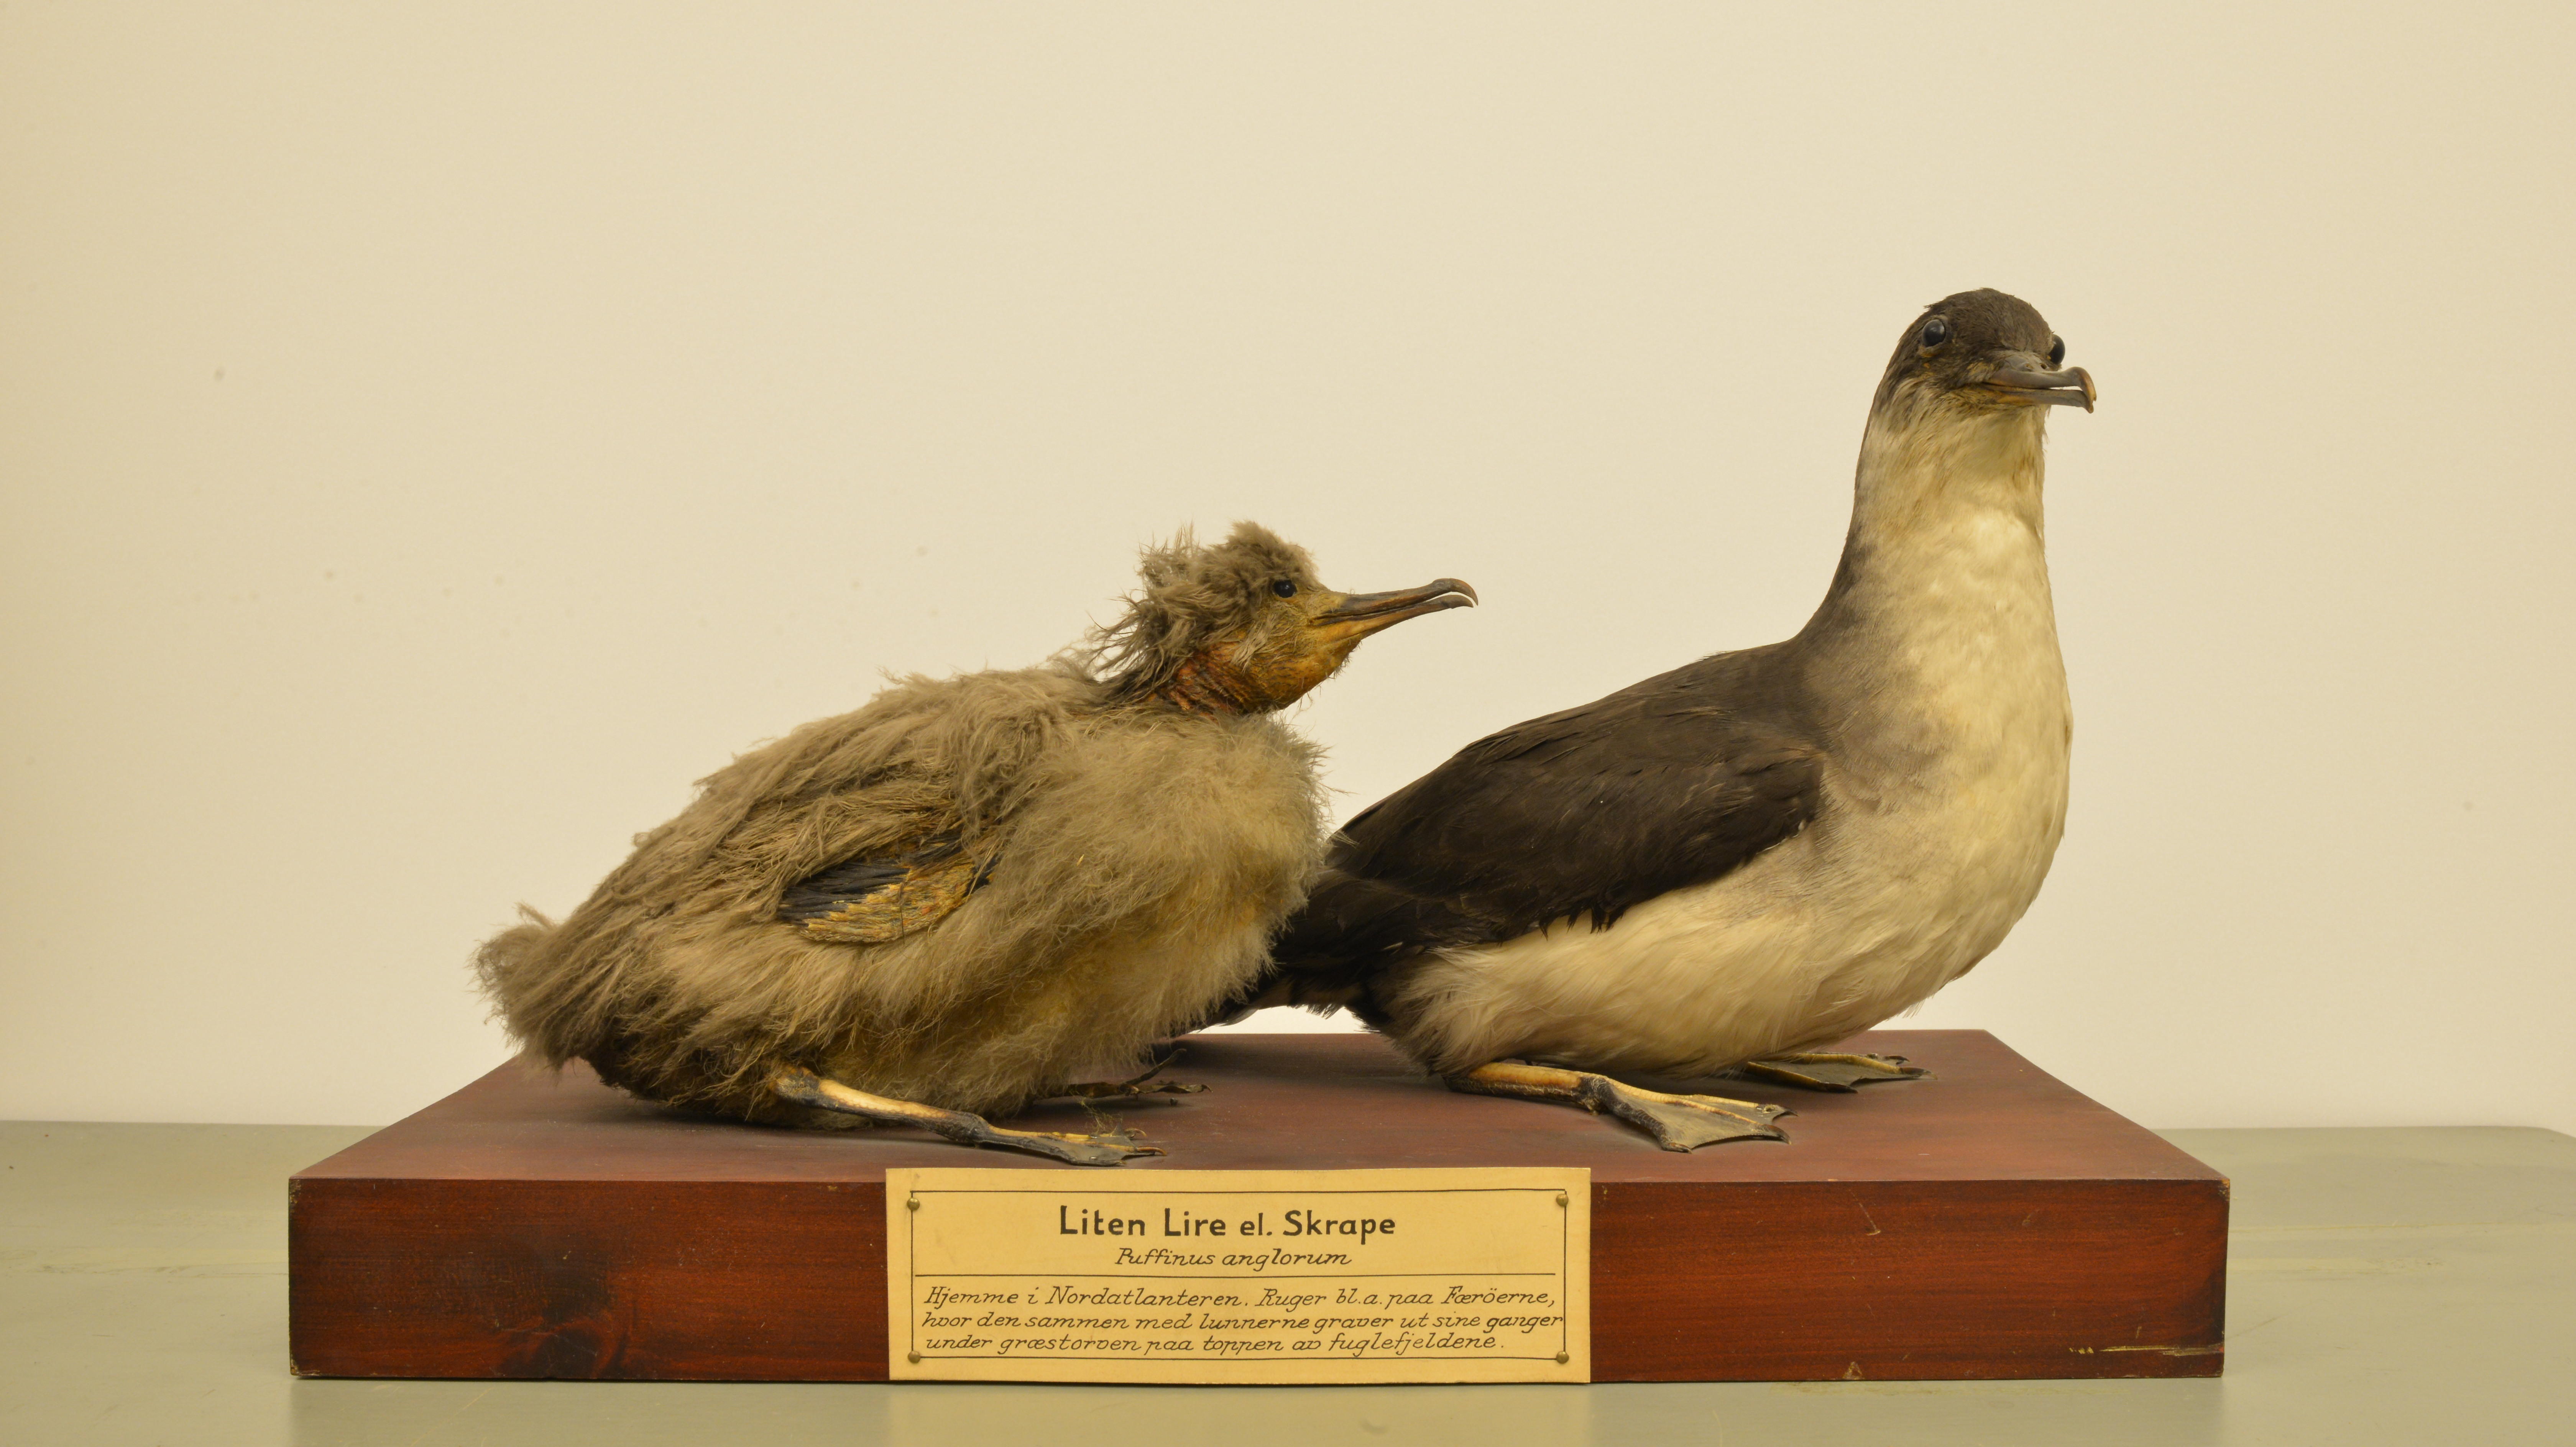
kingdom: Animalia
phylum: Chordata
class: Aves
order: Procellariiformes
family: Procellariidae
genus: Puffinus
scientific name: Puffinus puffinus
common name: Manx shearwater
